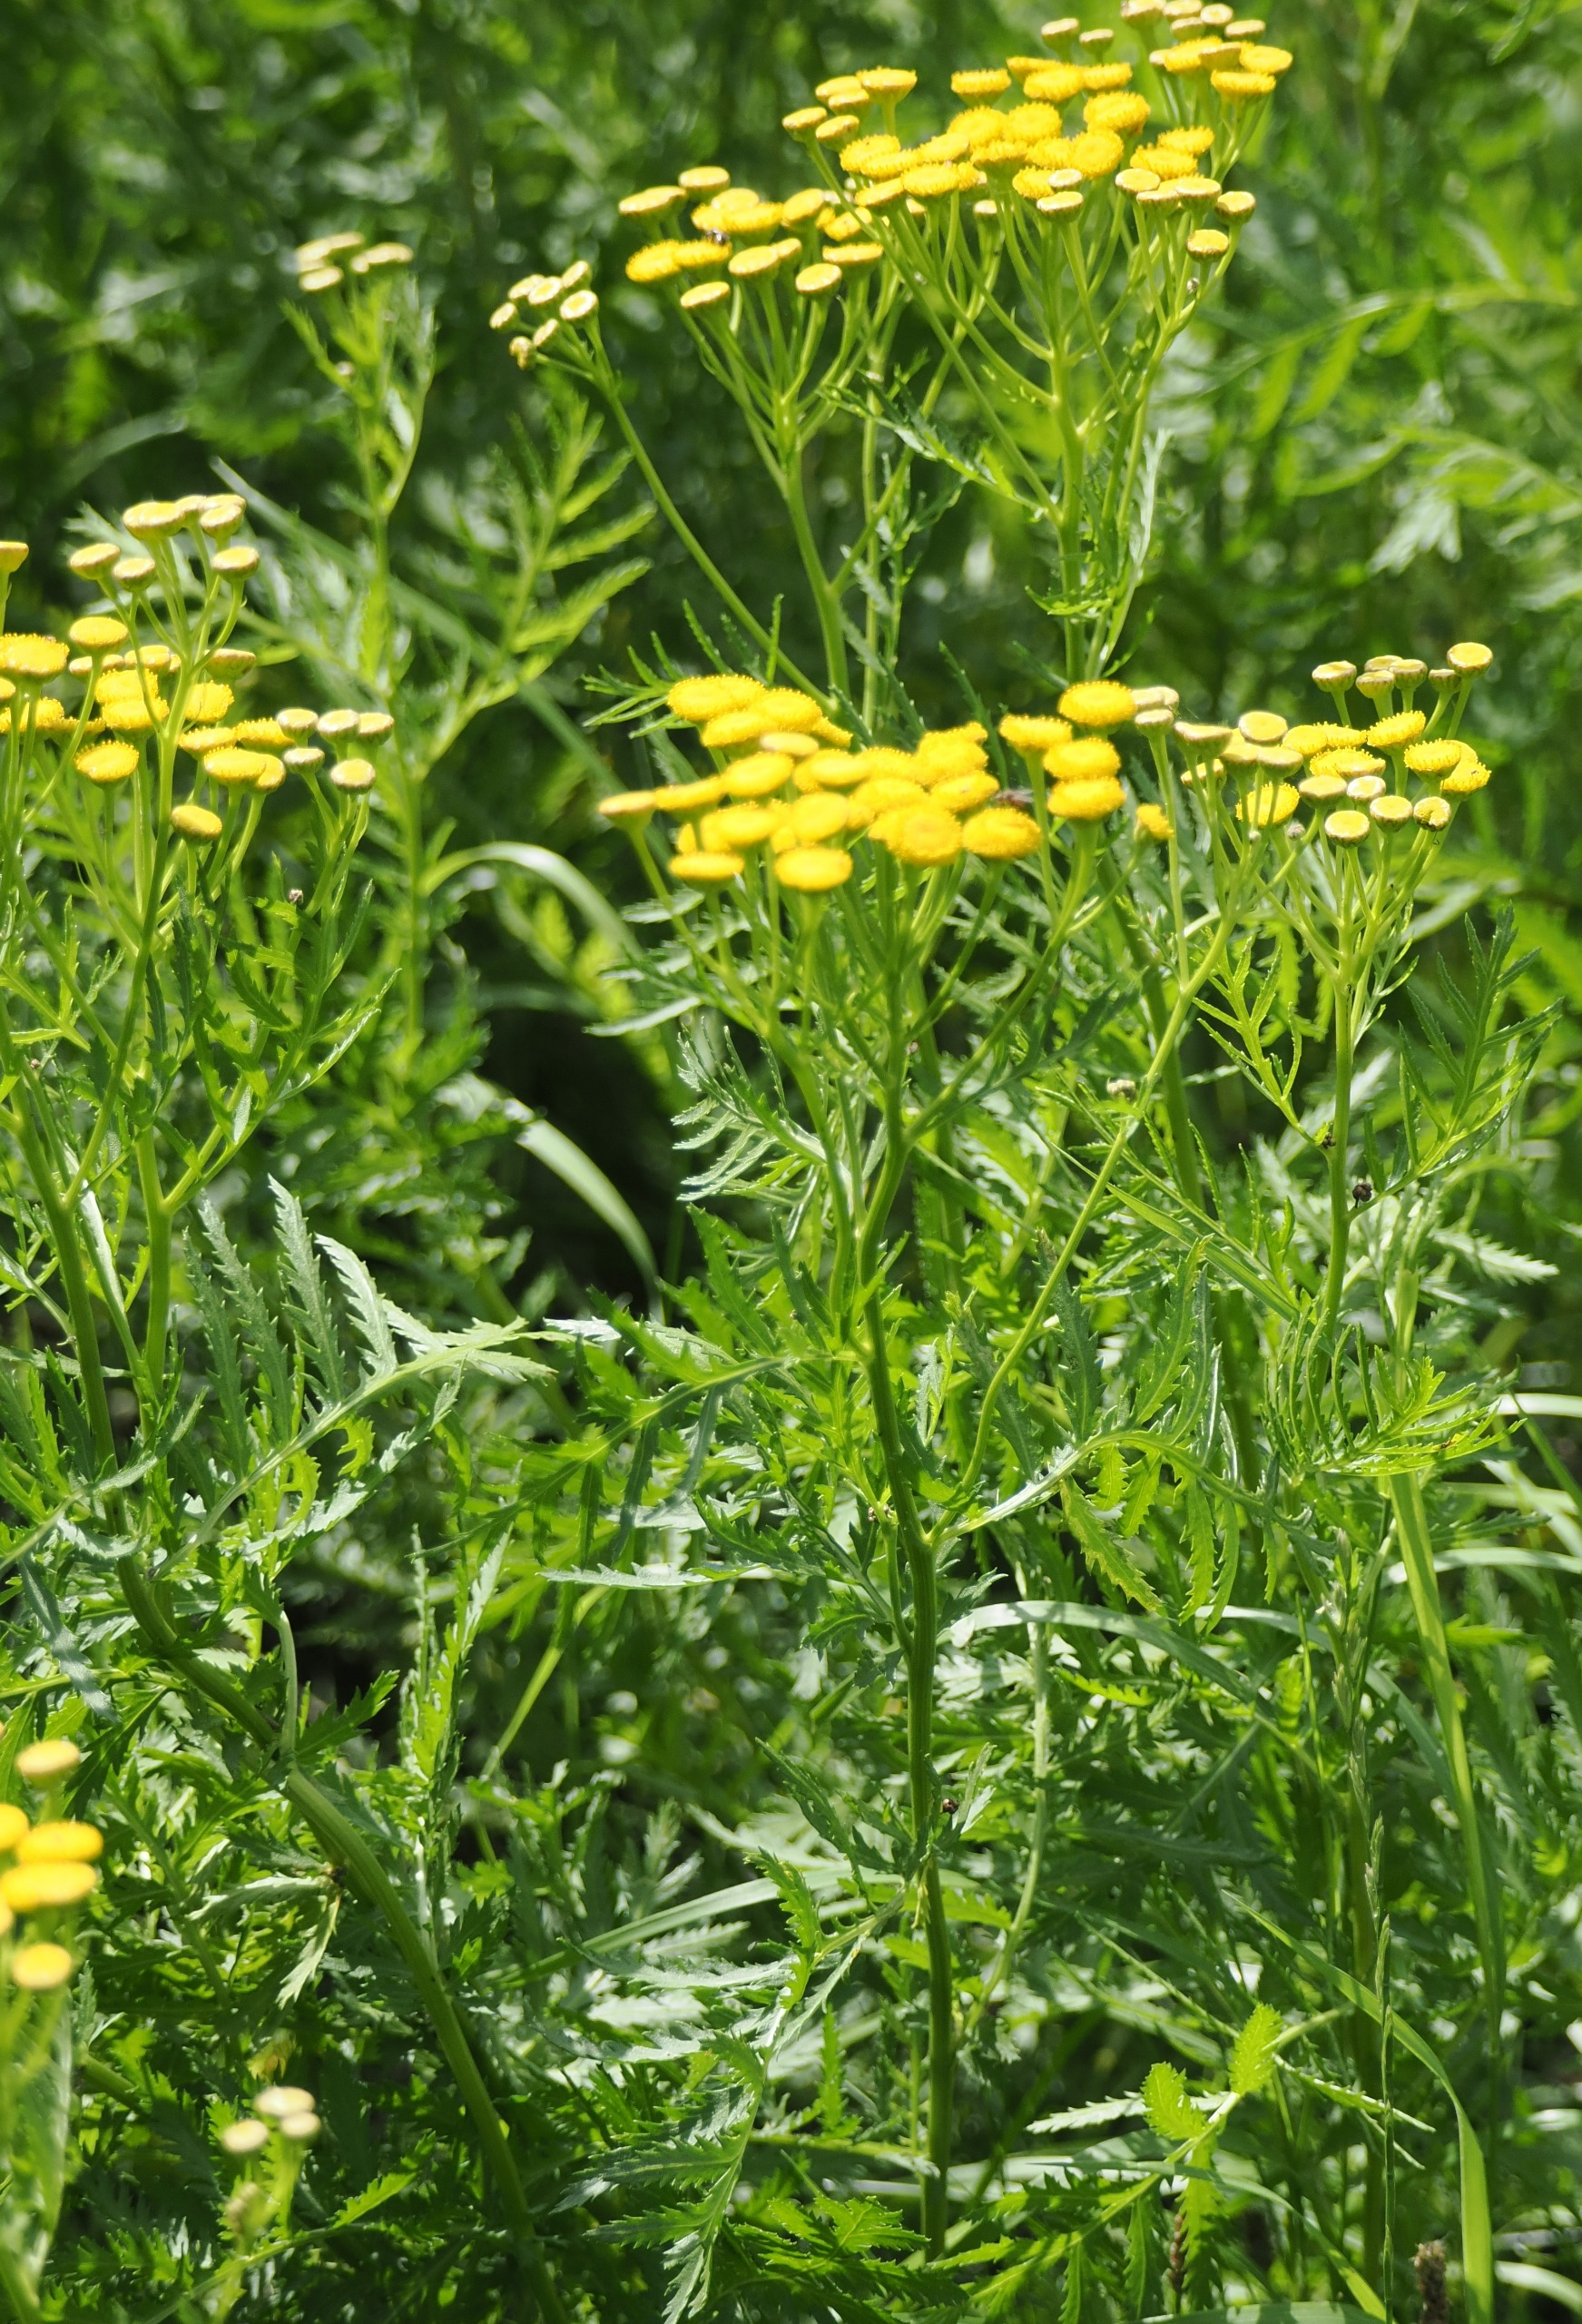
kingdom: Plantae
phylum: Tracheophyta
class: Magnoliopsida
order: Asterales
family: Asteraceae
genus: Tanacetum
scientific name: Tanacetum vulgare
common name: Rejnfan
